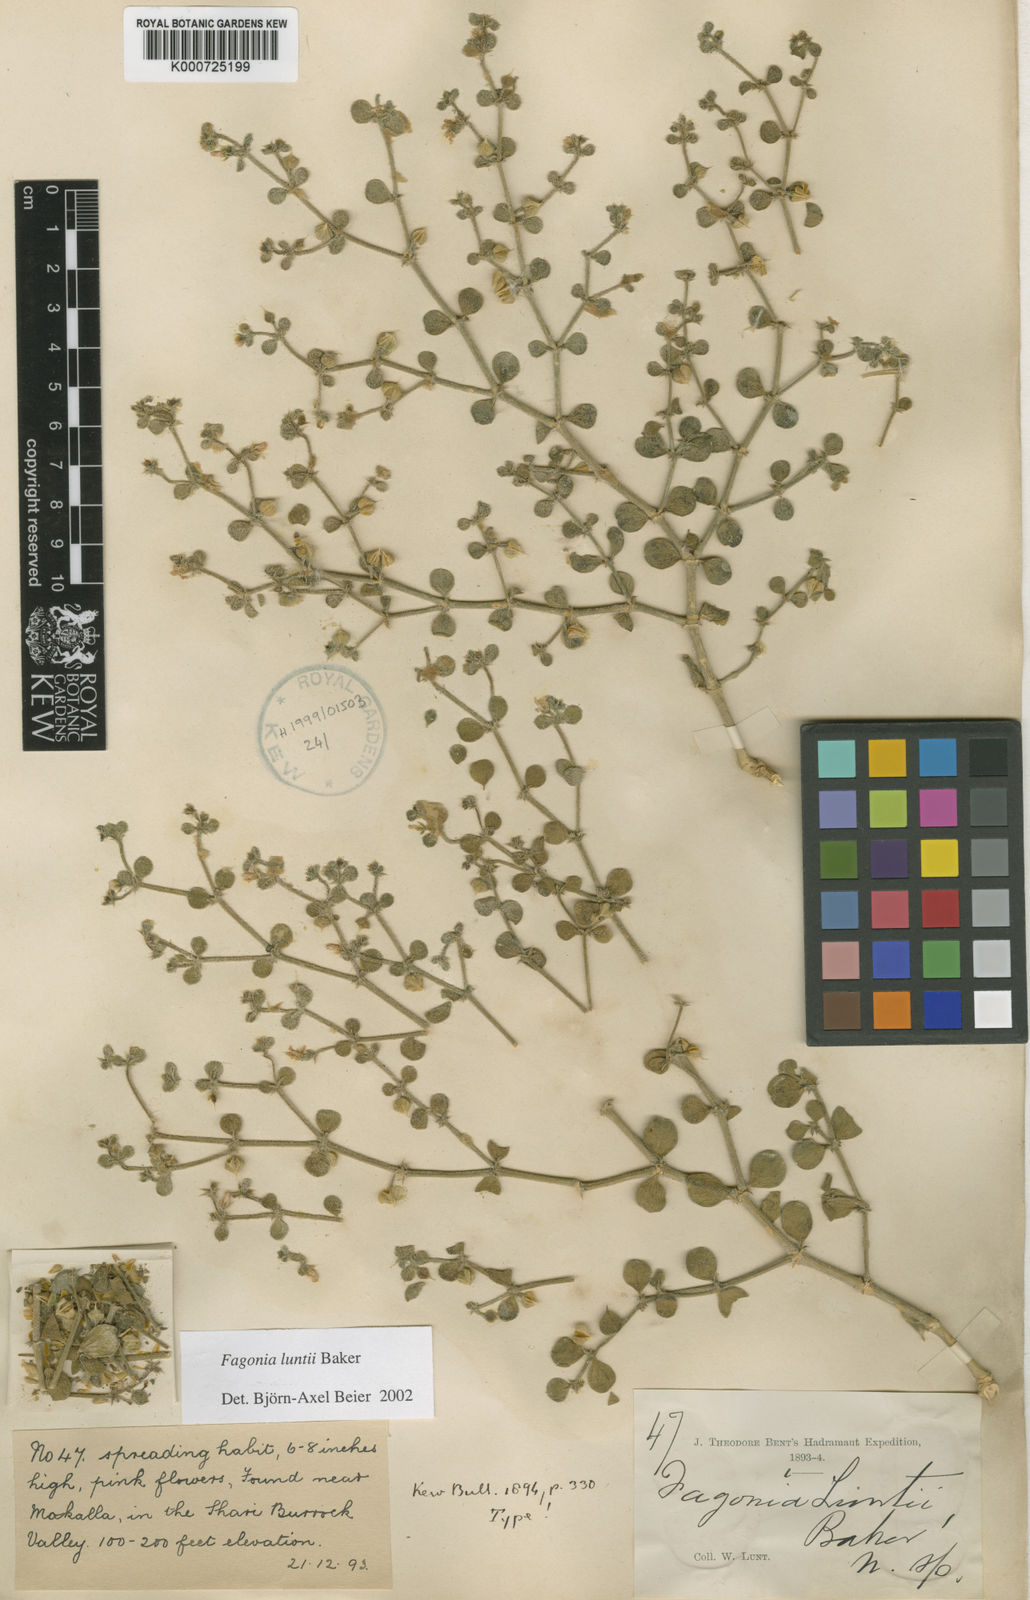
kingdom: Plantae
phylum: Tracheophyta
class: Magnoliopsida
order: Zygophyllales
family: Zygophyllaceae
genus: Fagonia
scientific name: Fagonia socotrana
